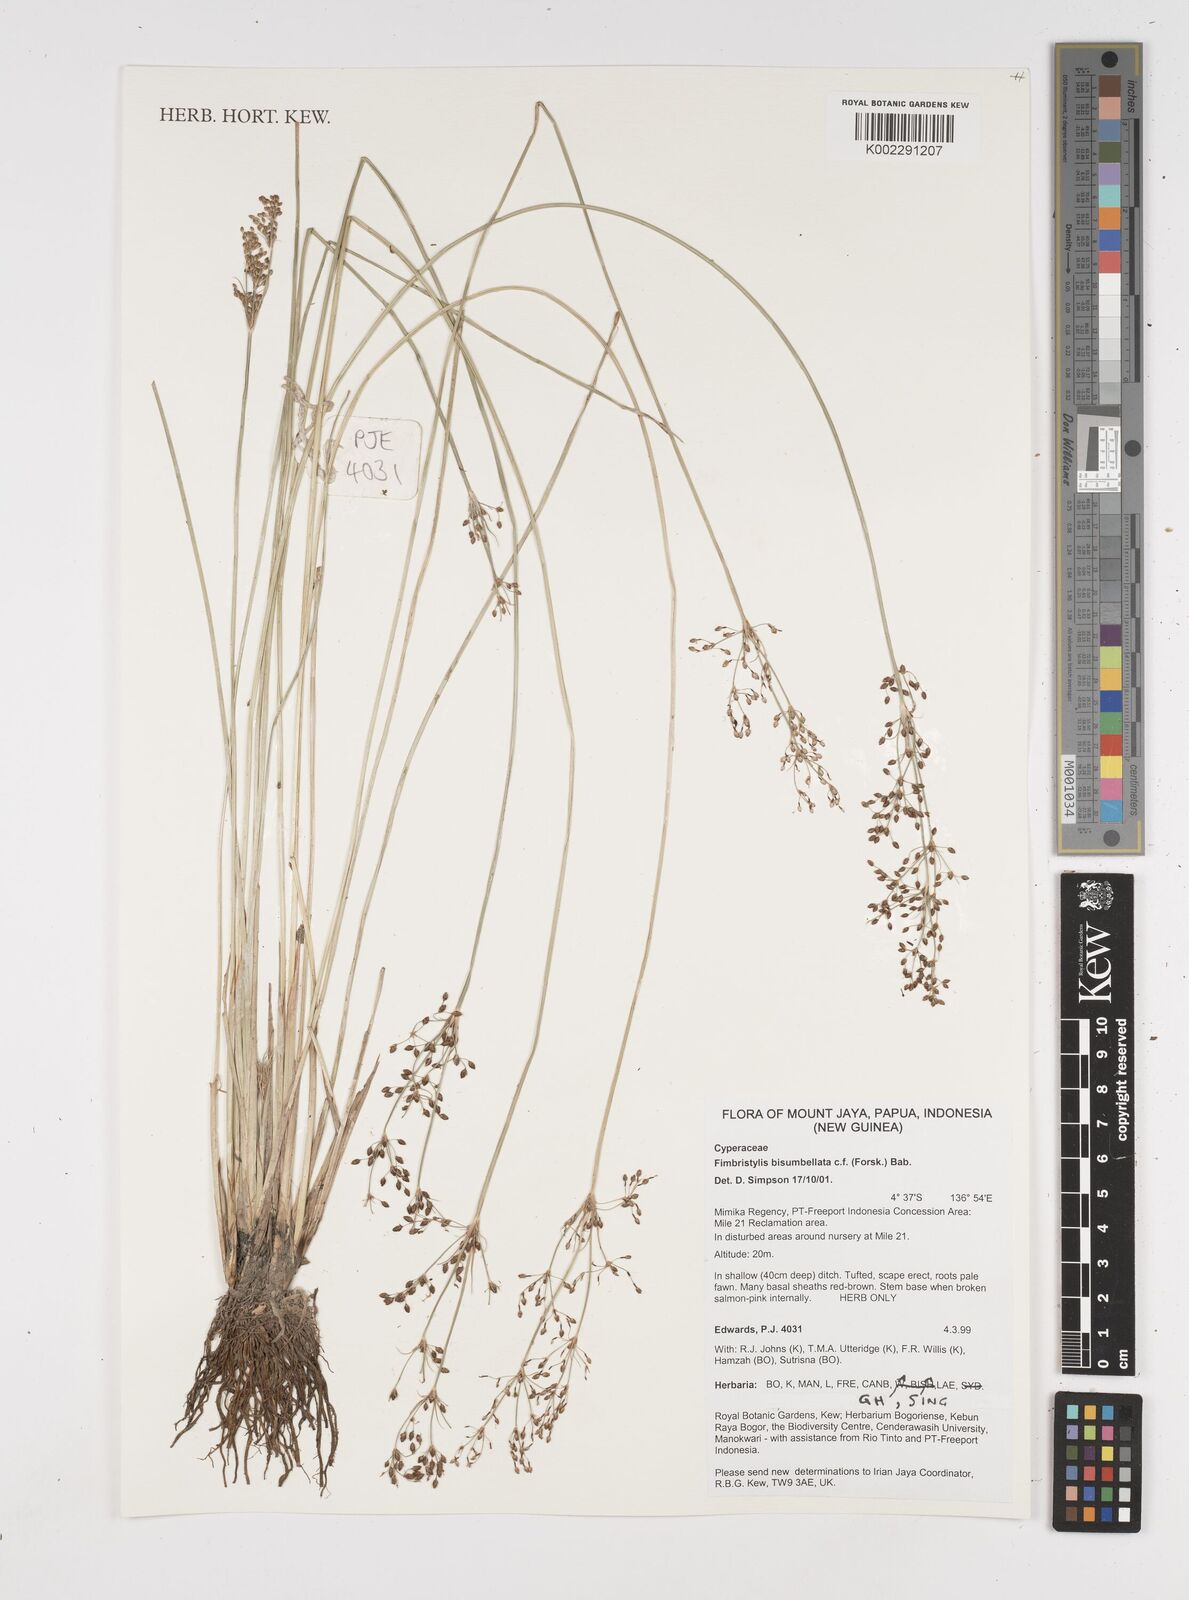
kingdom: Plantae
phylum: Tracheophyta
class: Liliopsida
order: Poales
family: Cyperaceae
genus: Fimbristylis
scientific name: Fimbristylis bisumbellata
